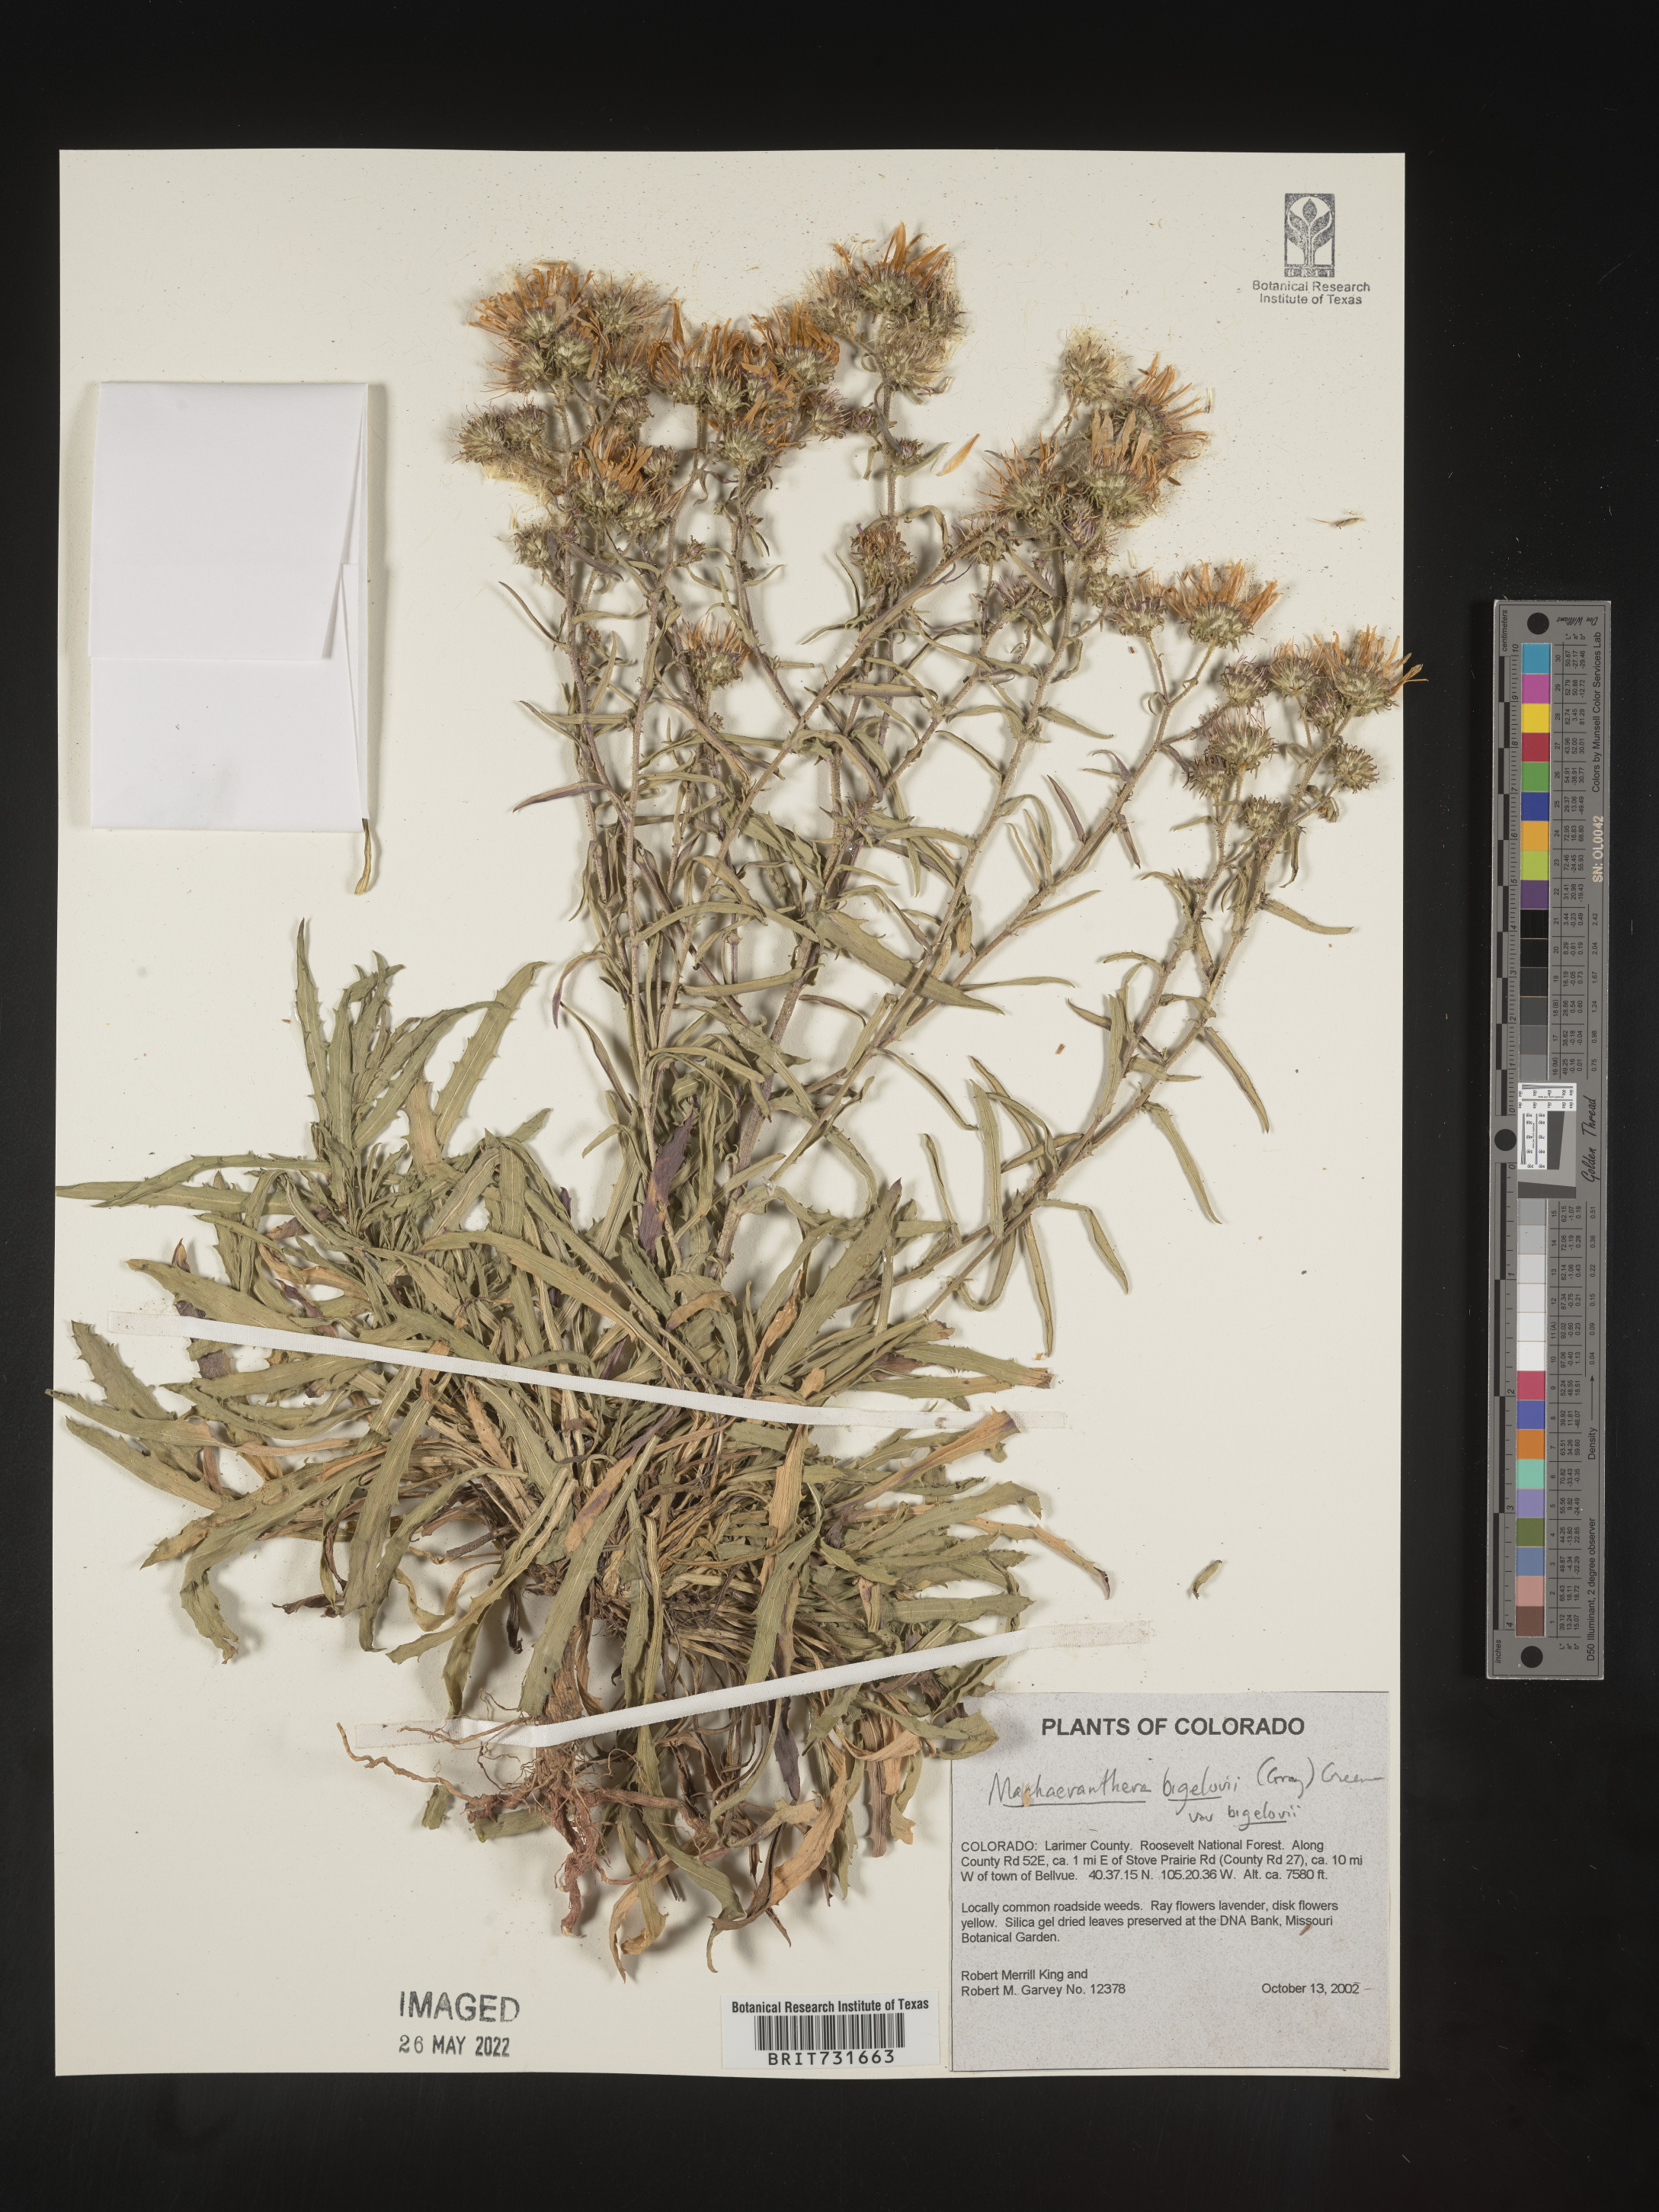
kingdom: Plantae
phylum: Tracheophyta
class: Magnoliopsida
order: Asterales
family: Asteraceae
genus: Dieteria
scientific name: Dieteria bigelovii
